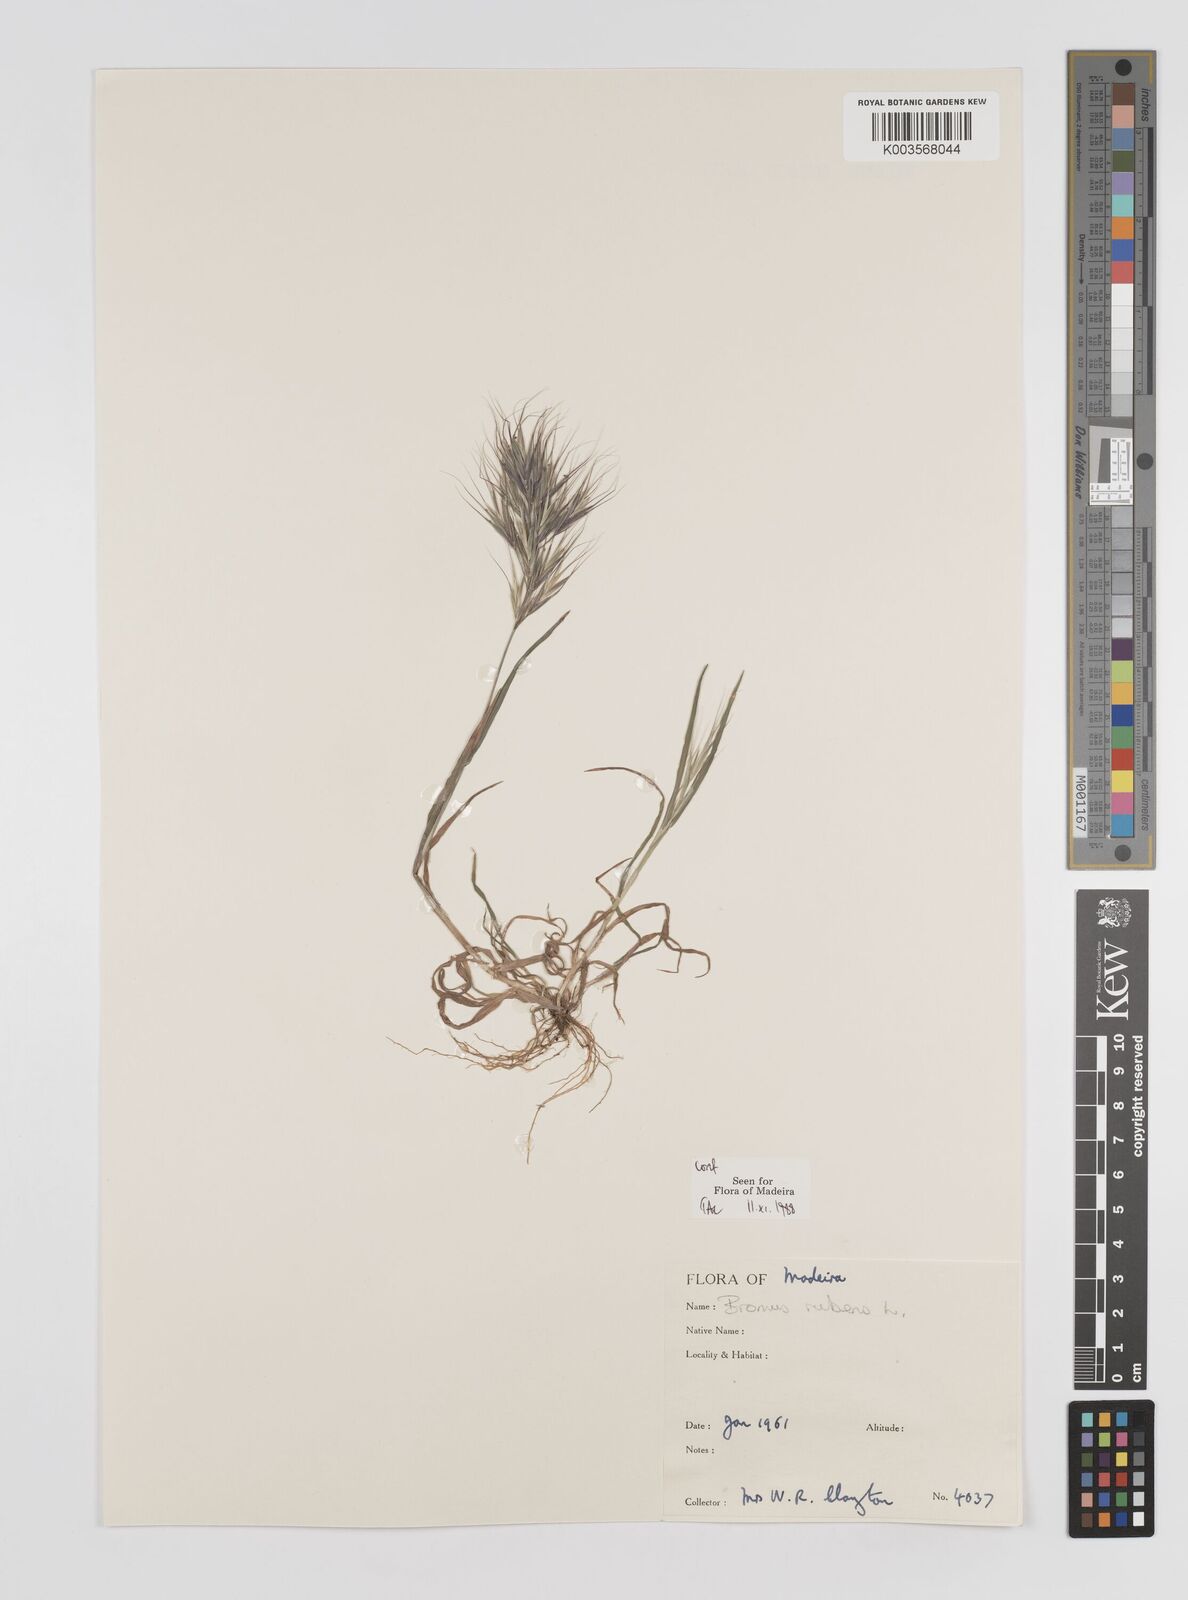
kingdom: Plantae
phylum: Tracheophyta
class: Liliopsida
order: Poales
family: Poaceae
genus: Bromus
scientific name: Bromus
